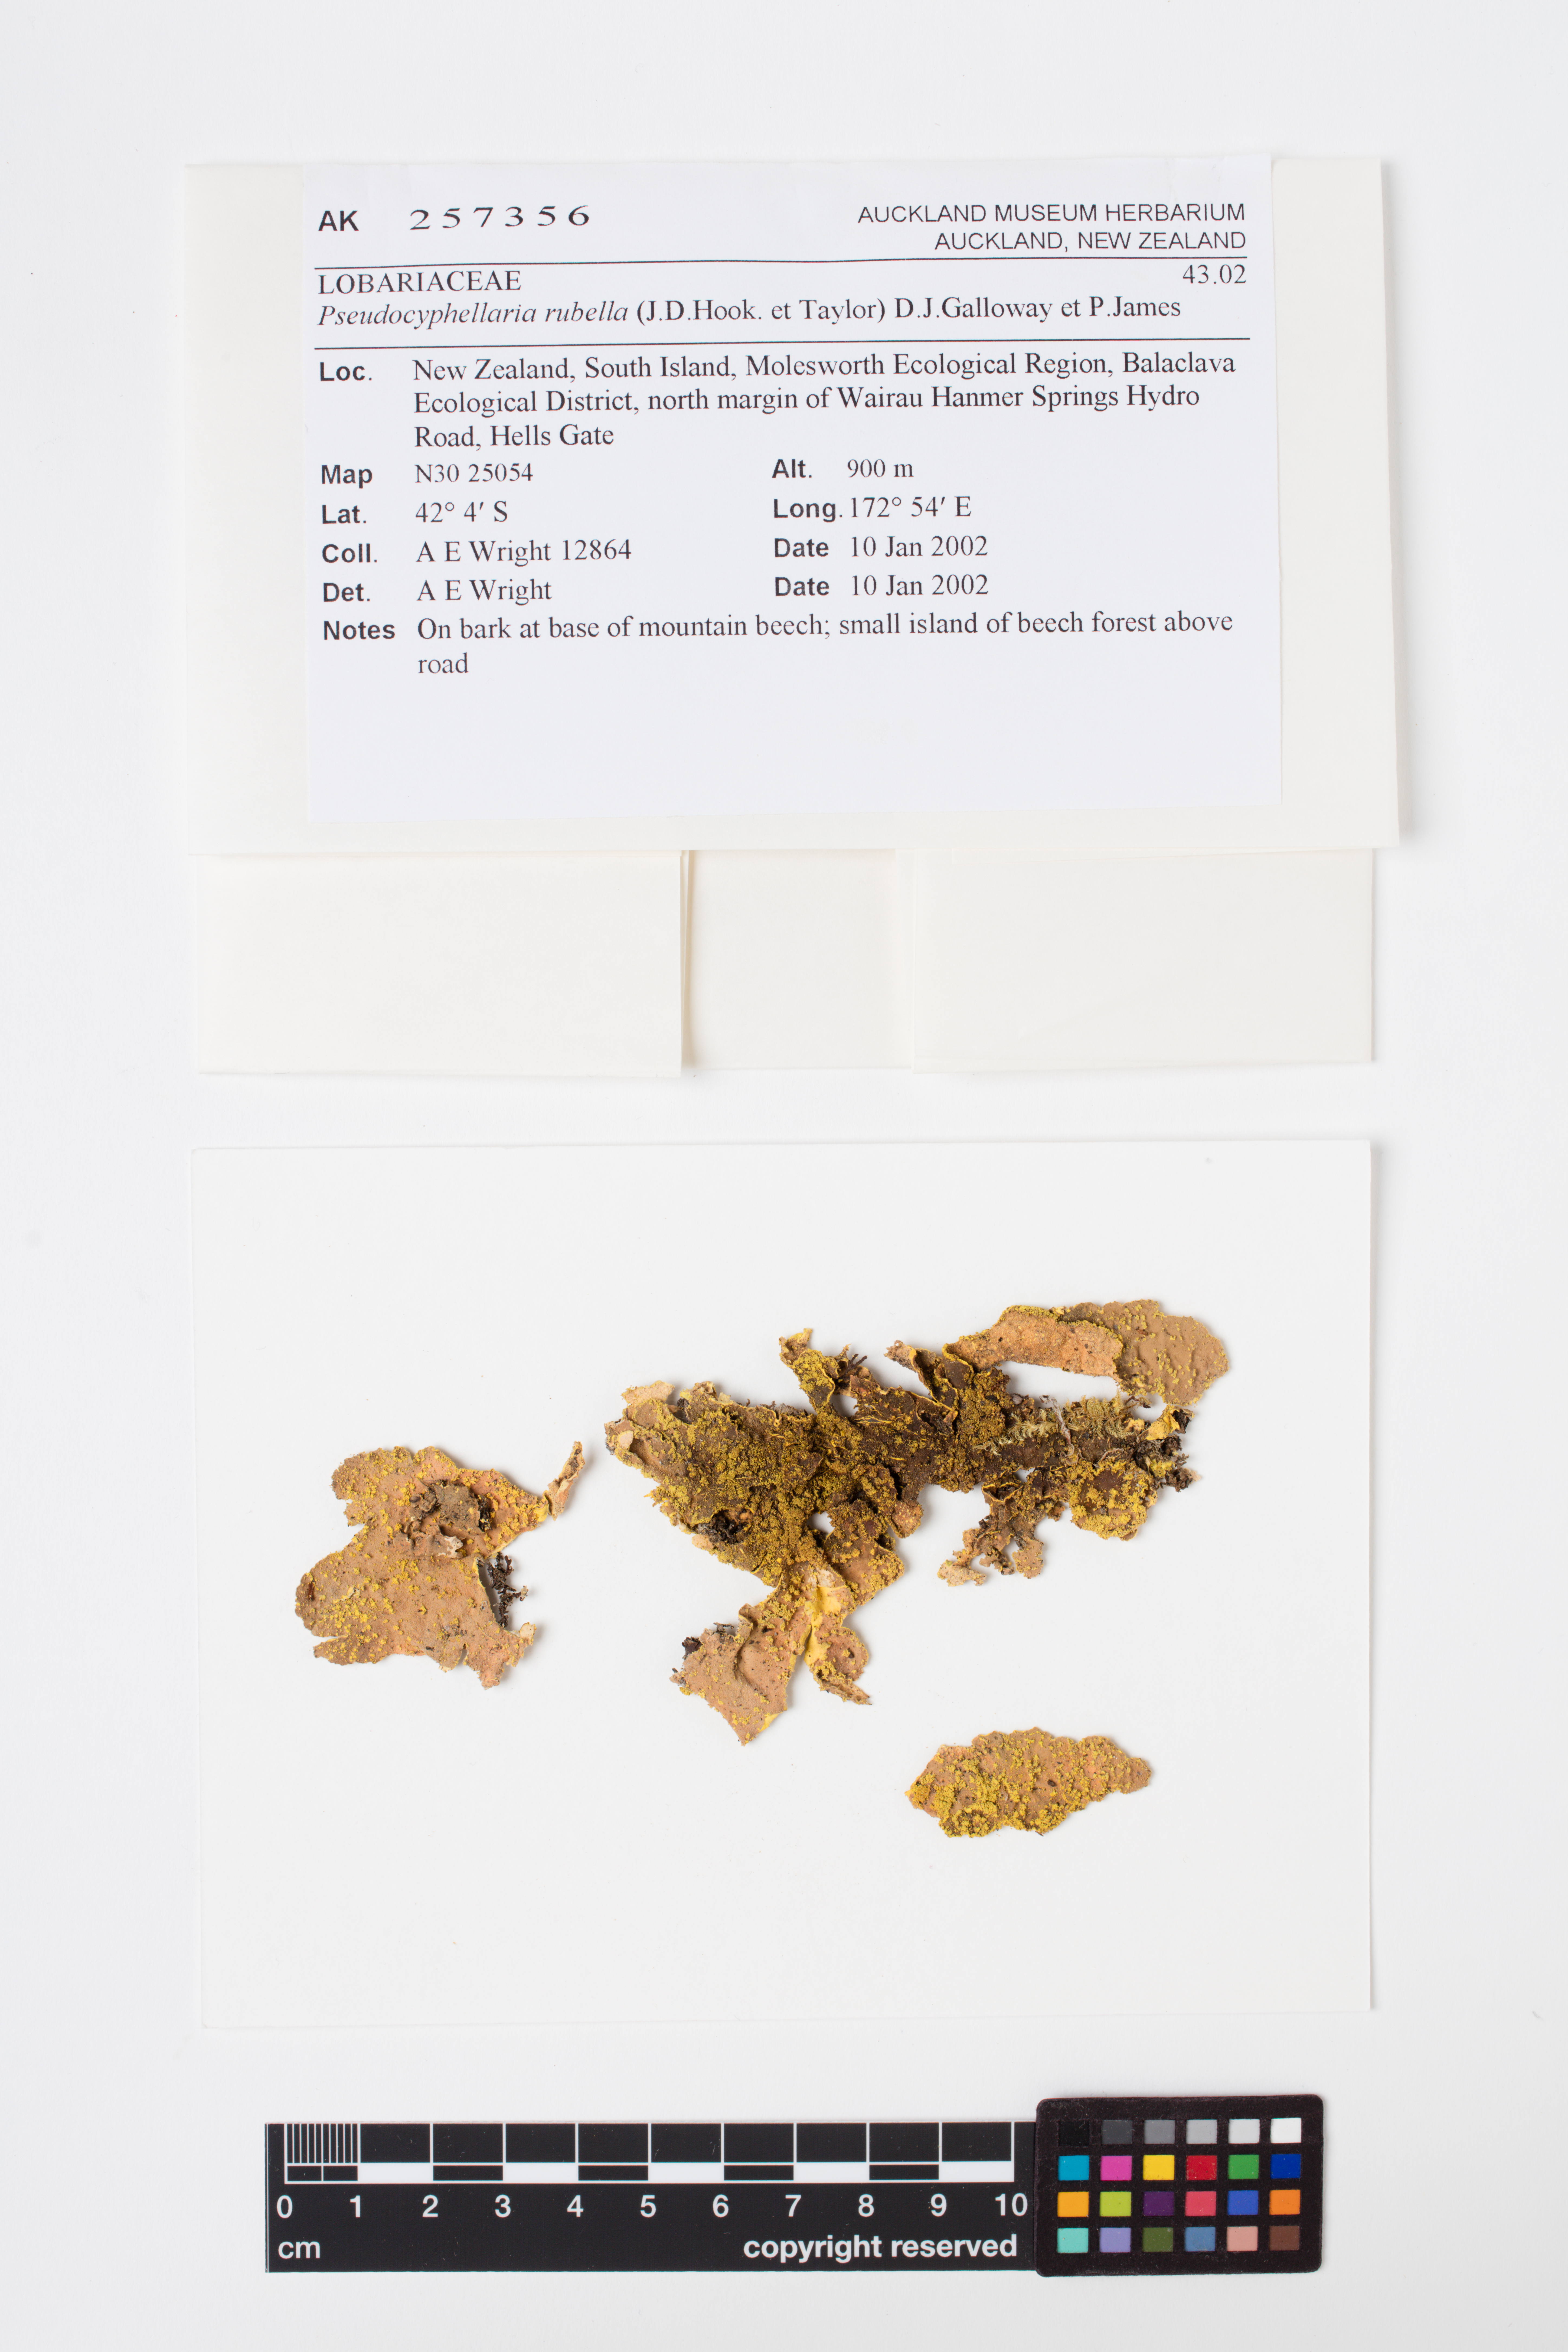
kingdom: Fungi
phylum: Ascomycota
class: Lecanoromycetes
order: Peltigerales
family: Lobariaceae
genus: Pseudocyphellaria
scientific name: Pseudocyphellaria rubella
